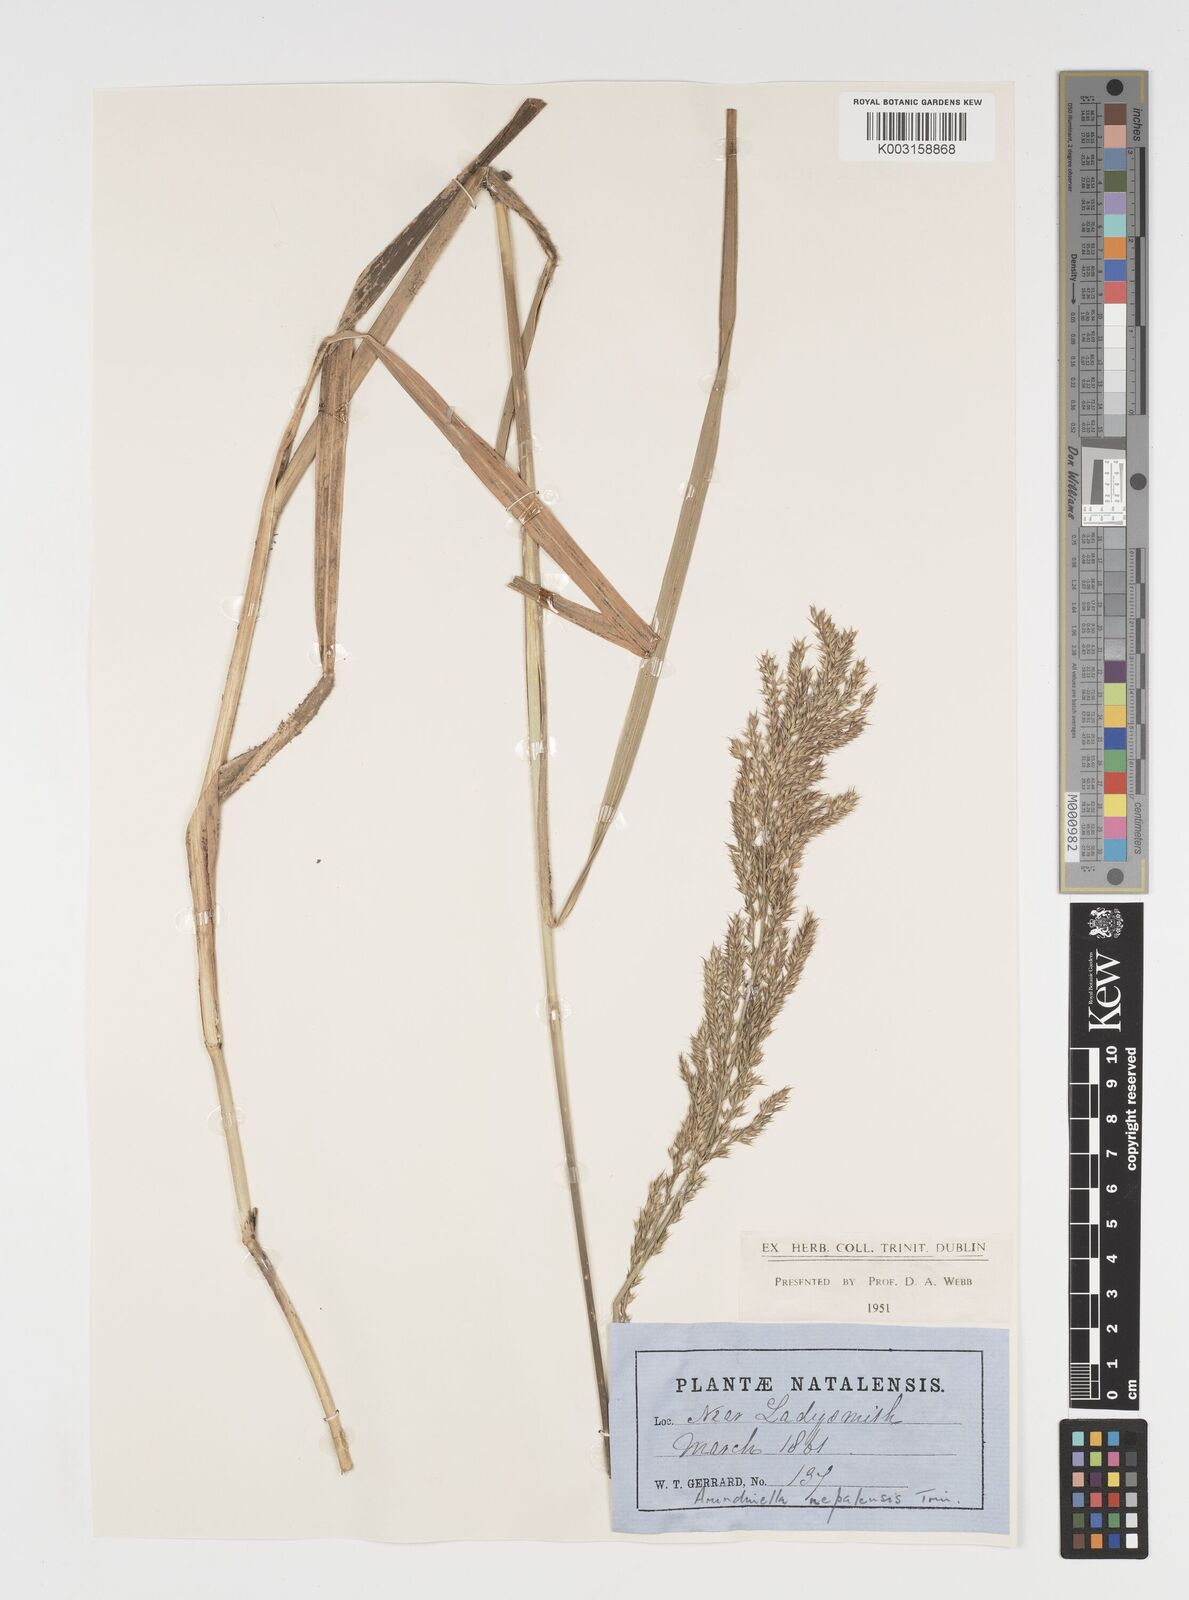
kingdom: Plantae
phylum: Tracheophyta
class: Liliopsida
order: Poales
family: Poaceae
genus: Arundinella
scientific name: Arundinella nepalensis
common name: Reed grass
